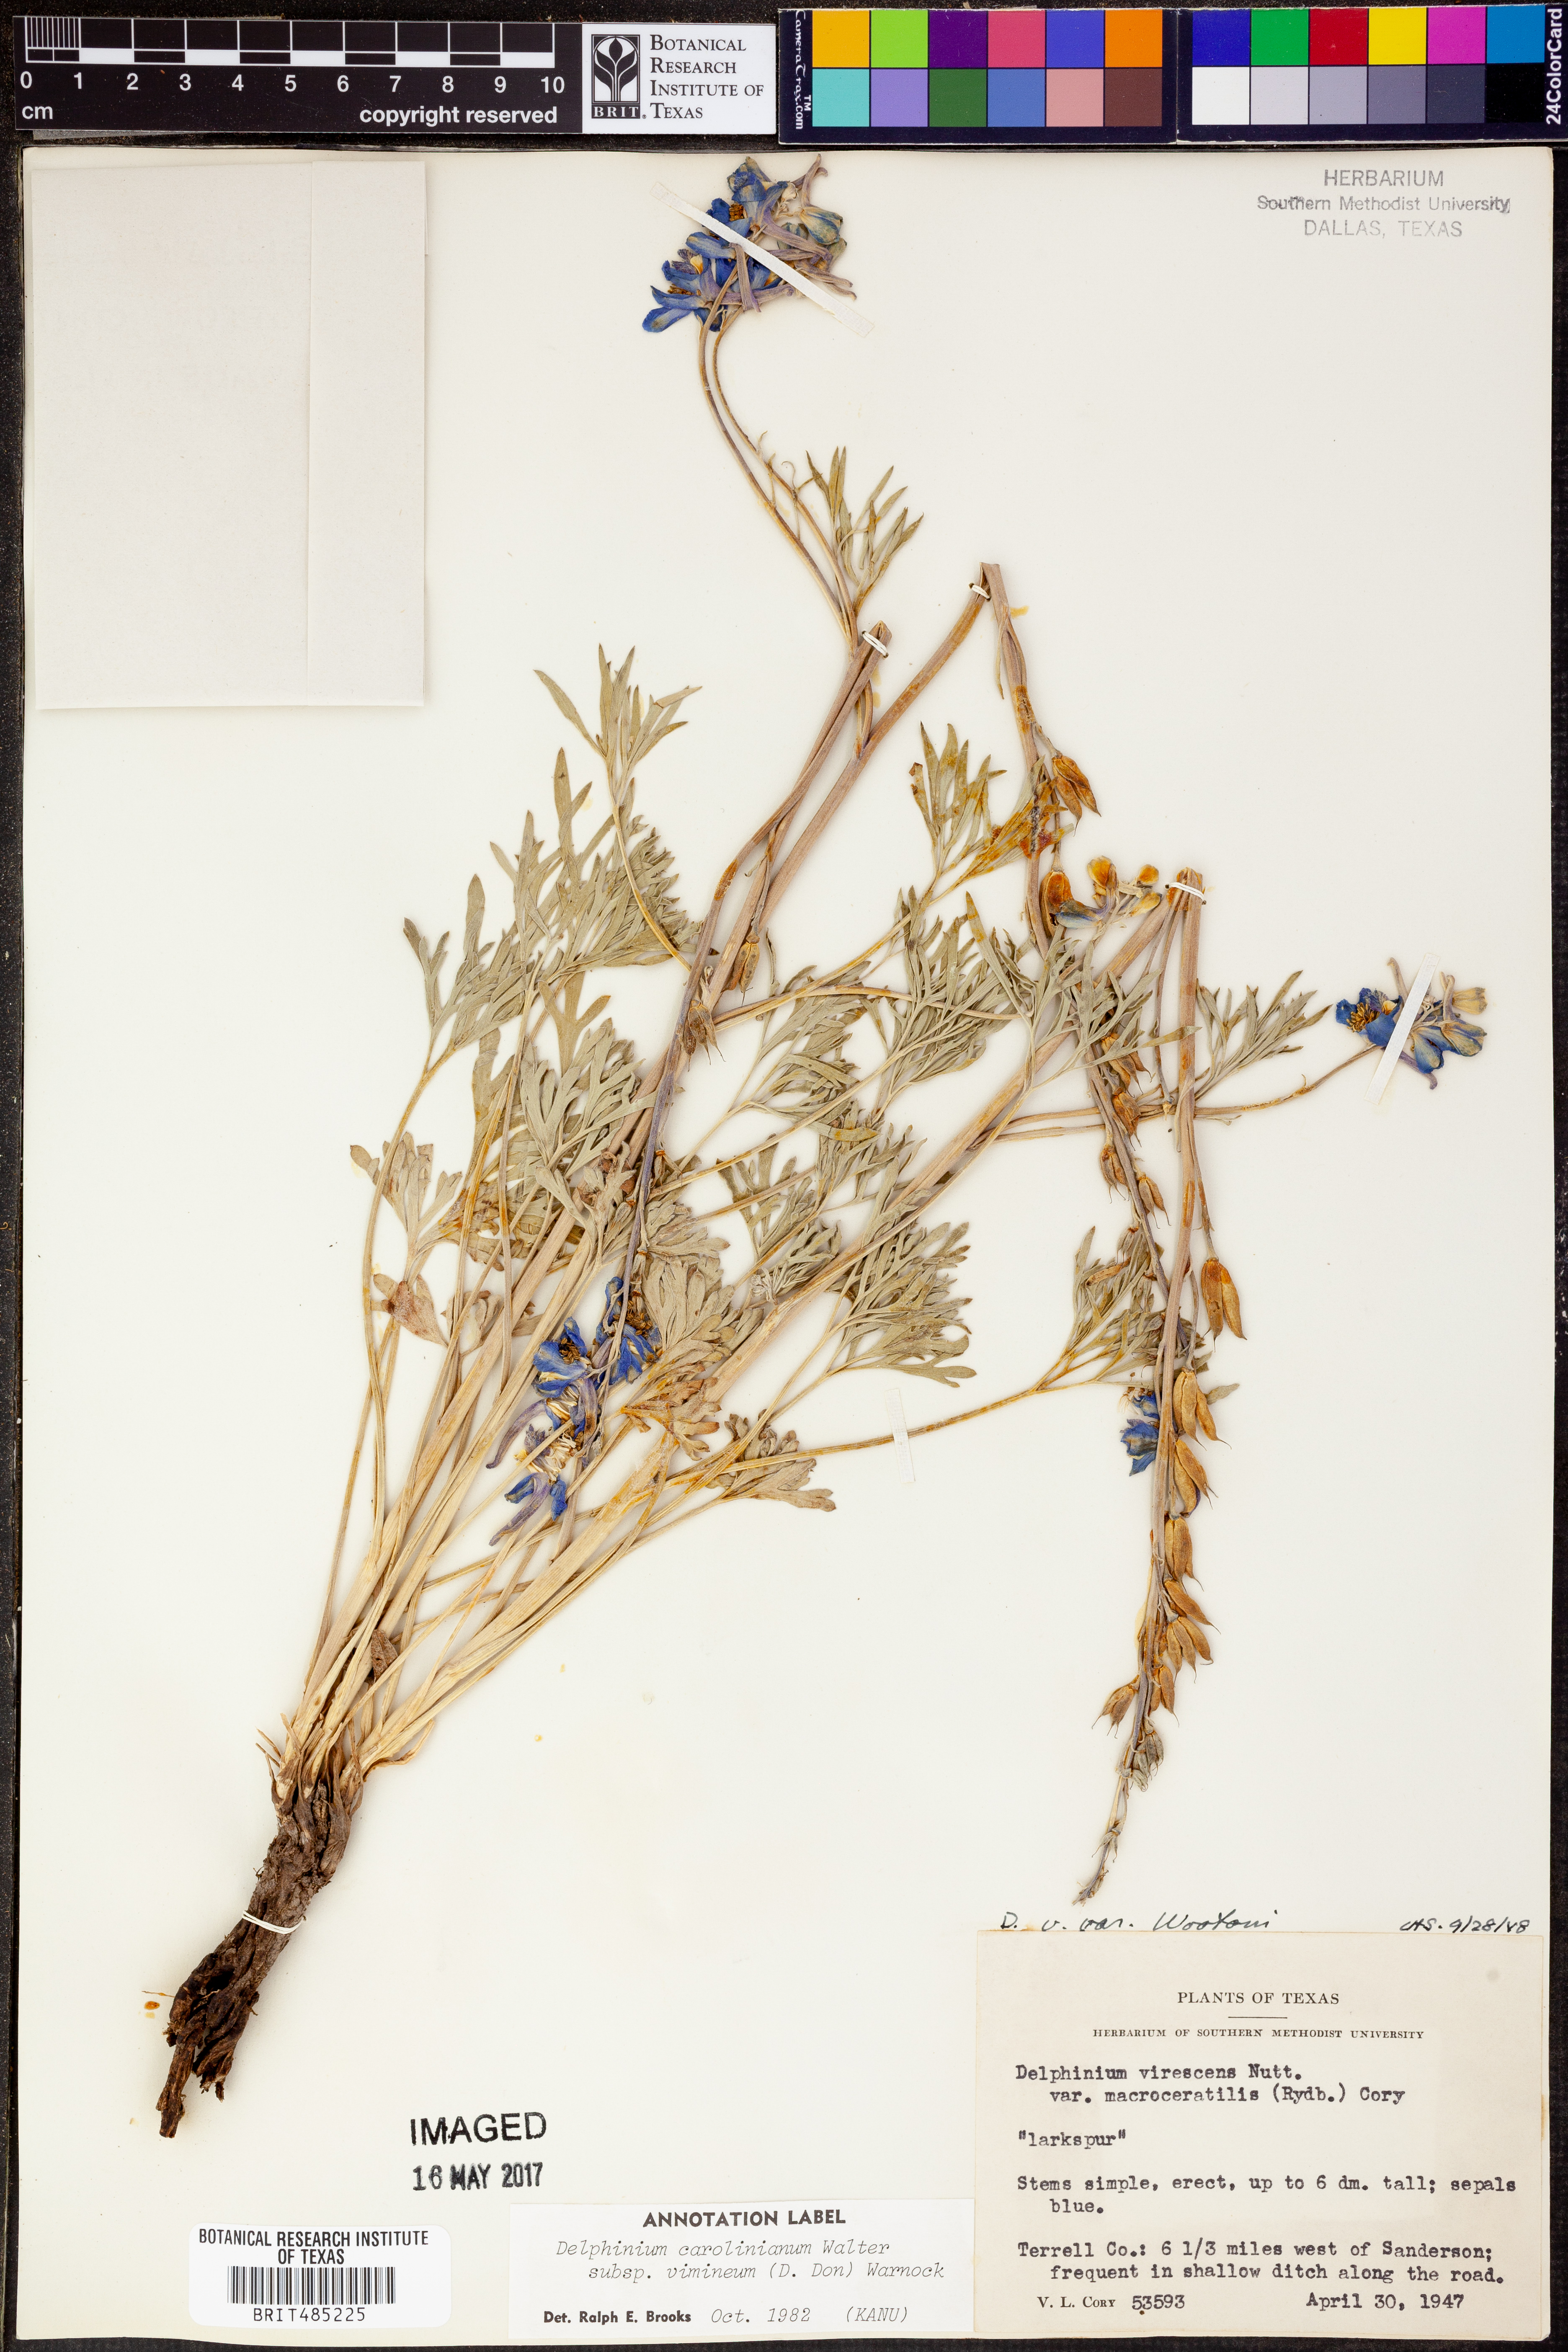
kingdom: Plantae
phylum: Tracheophyta
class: Magnoliopsida
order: Ranunculales
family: Ranunculaceae
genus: Delphinium
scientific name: Delphinium carolinianum
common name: Carolina larkspur
